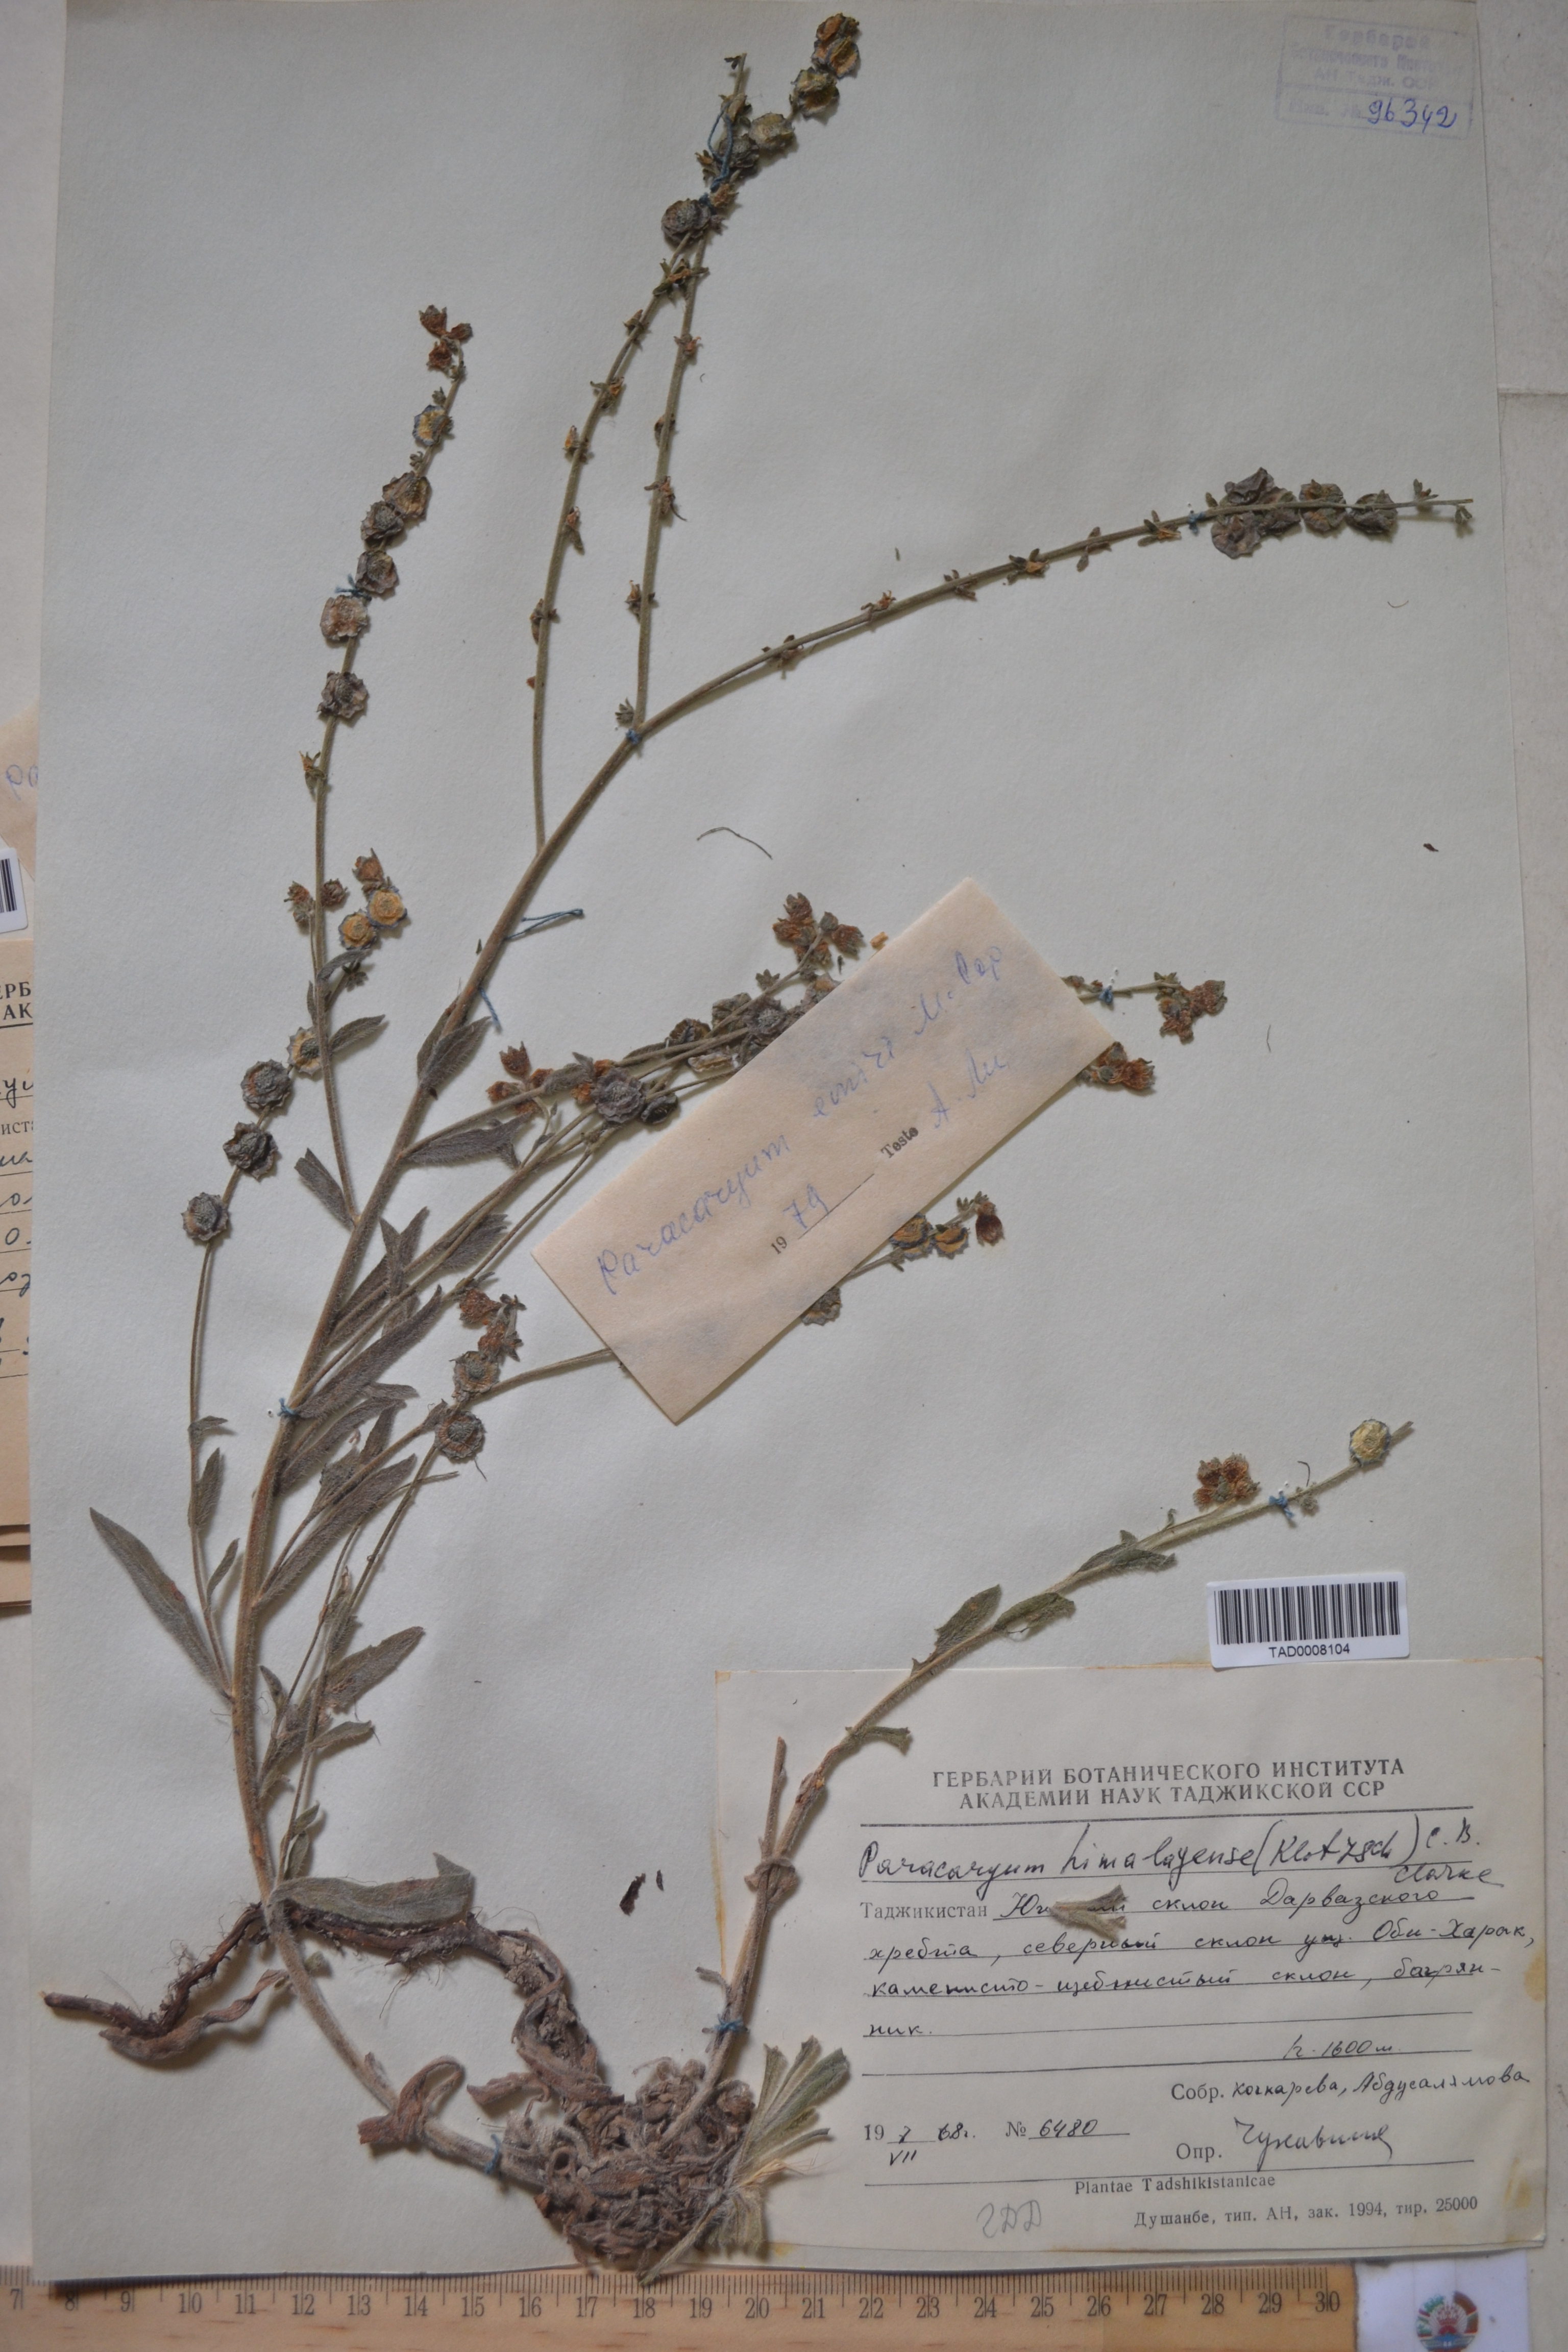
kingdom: Plantae
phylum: Tracheophyta
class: Magnoliopsida
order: Boraginales
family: Boraginaceae
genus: Paracaryum
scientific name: Paracaryum himalayense
